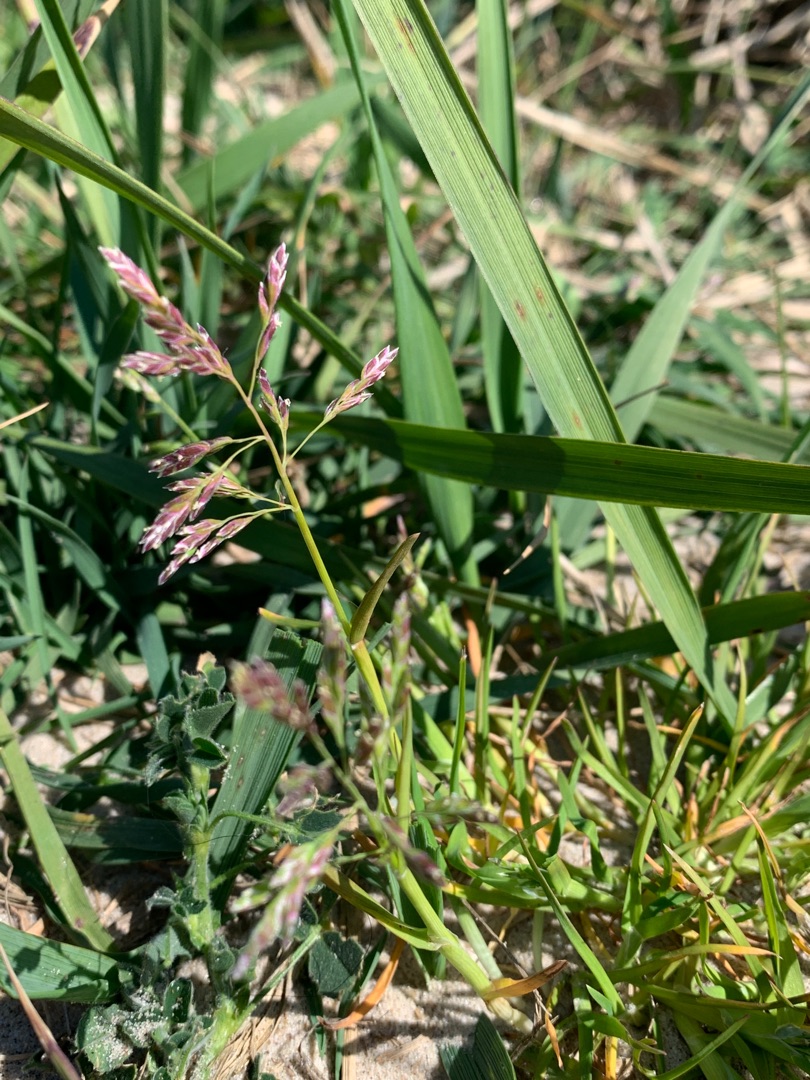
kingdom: Plantae
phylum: Tracheophyta
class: Liliopsida
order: Poales
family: Poaceae
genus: Poa
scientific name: Poa annua
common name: Enårig rapgræs
